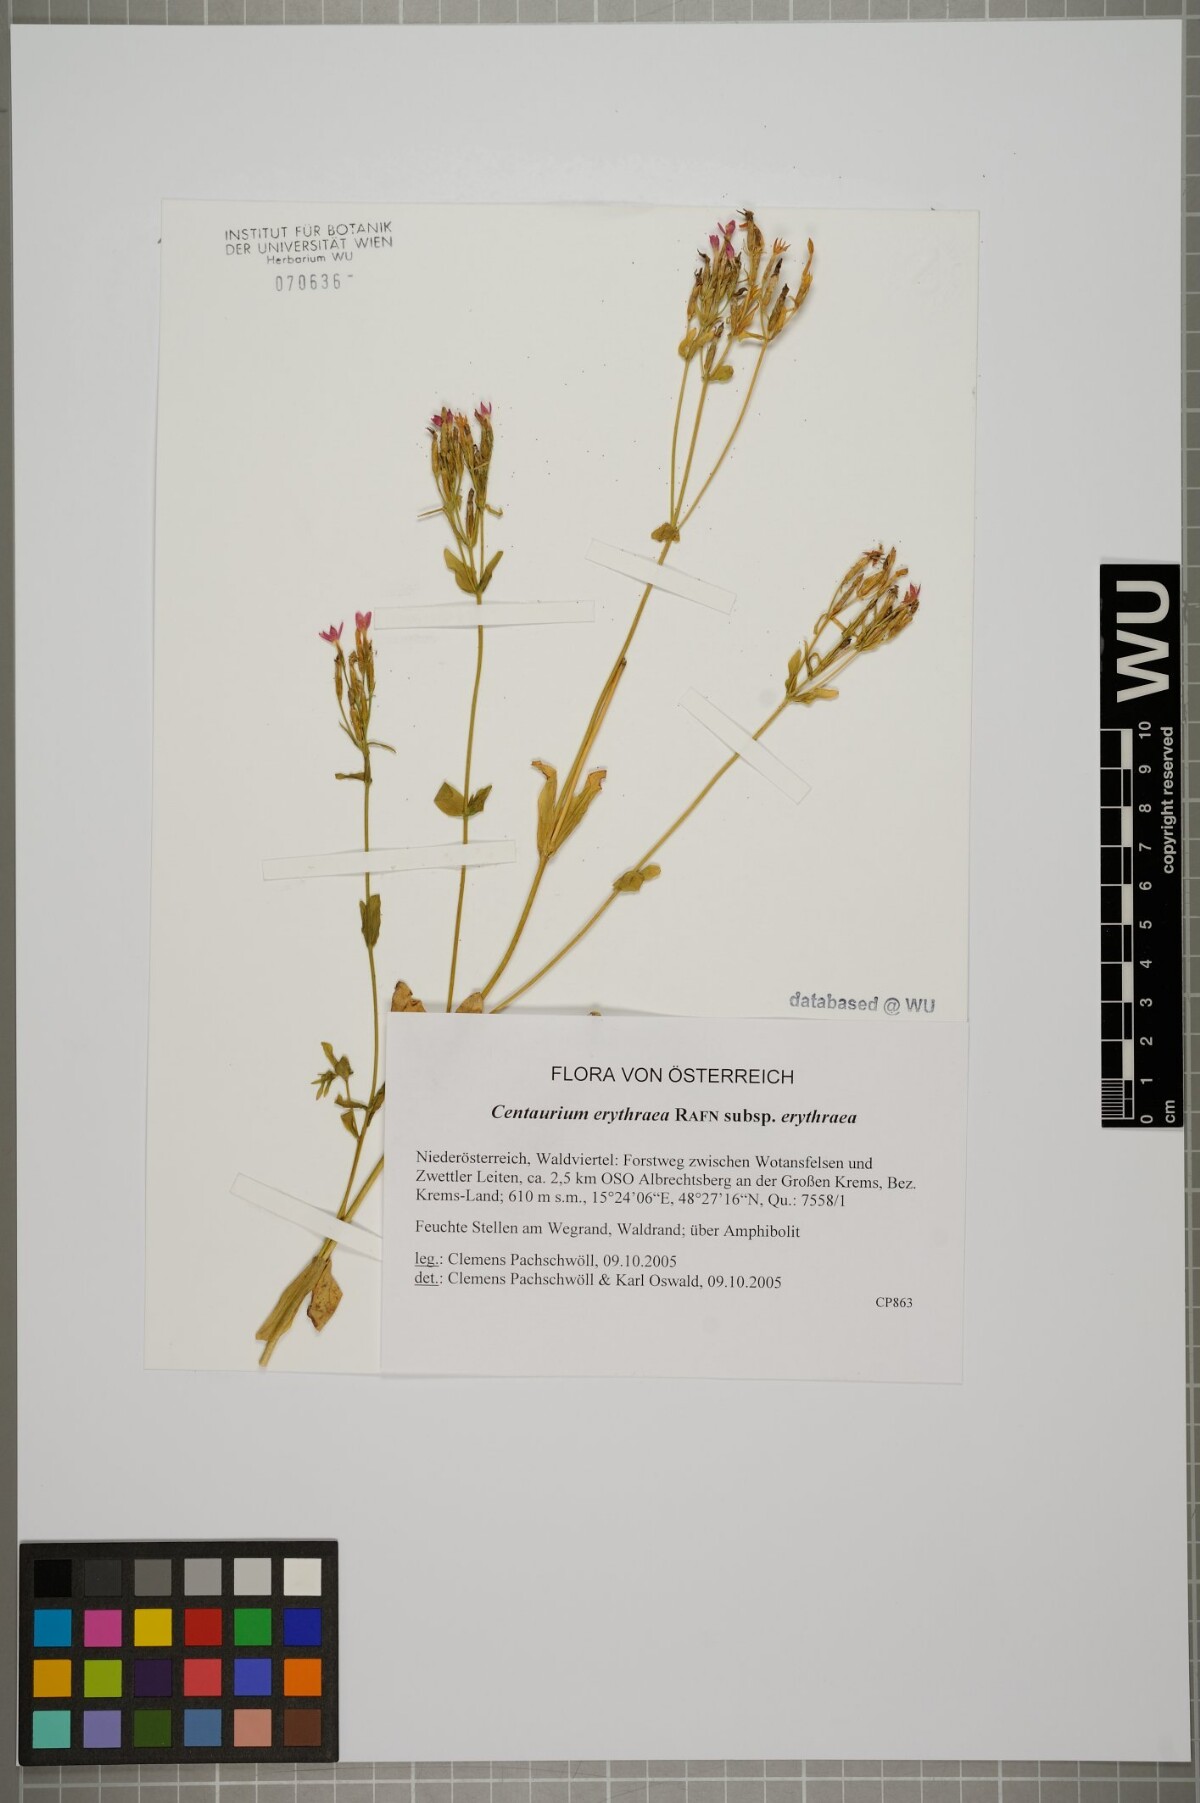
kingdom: Plantae
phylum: Tracheophyta
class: Magnoliopsida
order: Gentianales
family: Gentianaceae
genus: Centaurium
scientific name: Centaurium erythraea
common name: Common centaury
